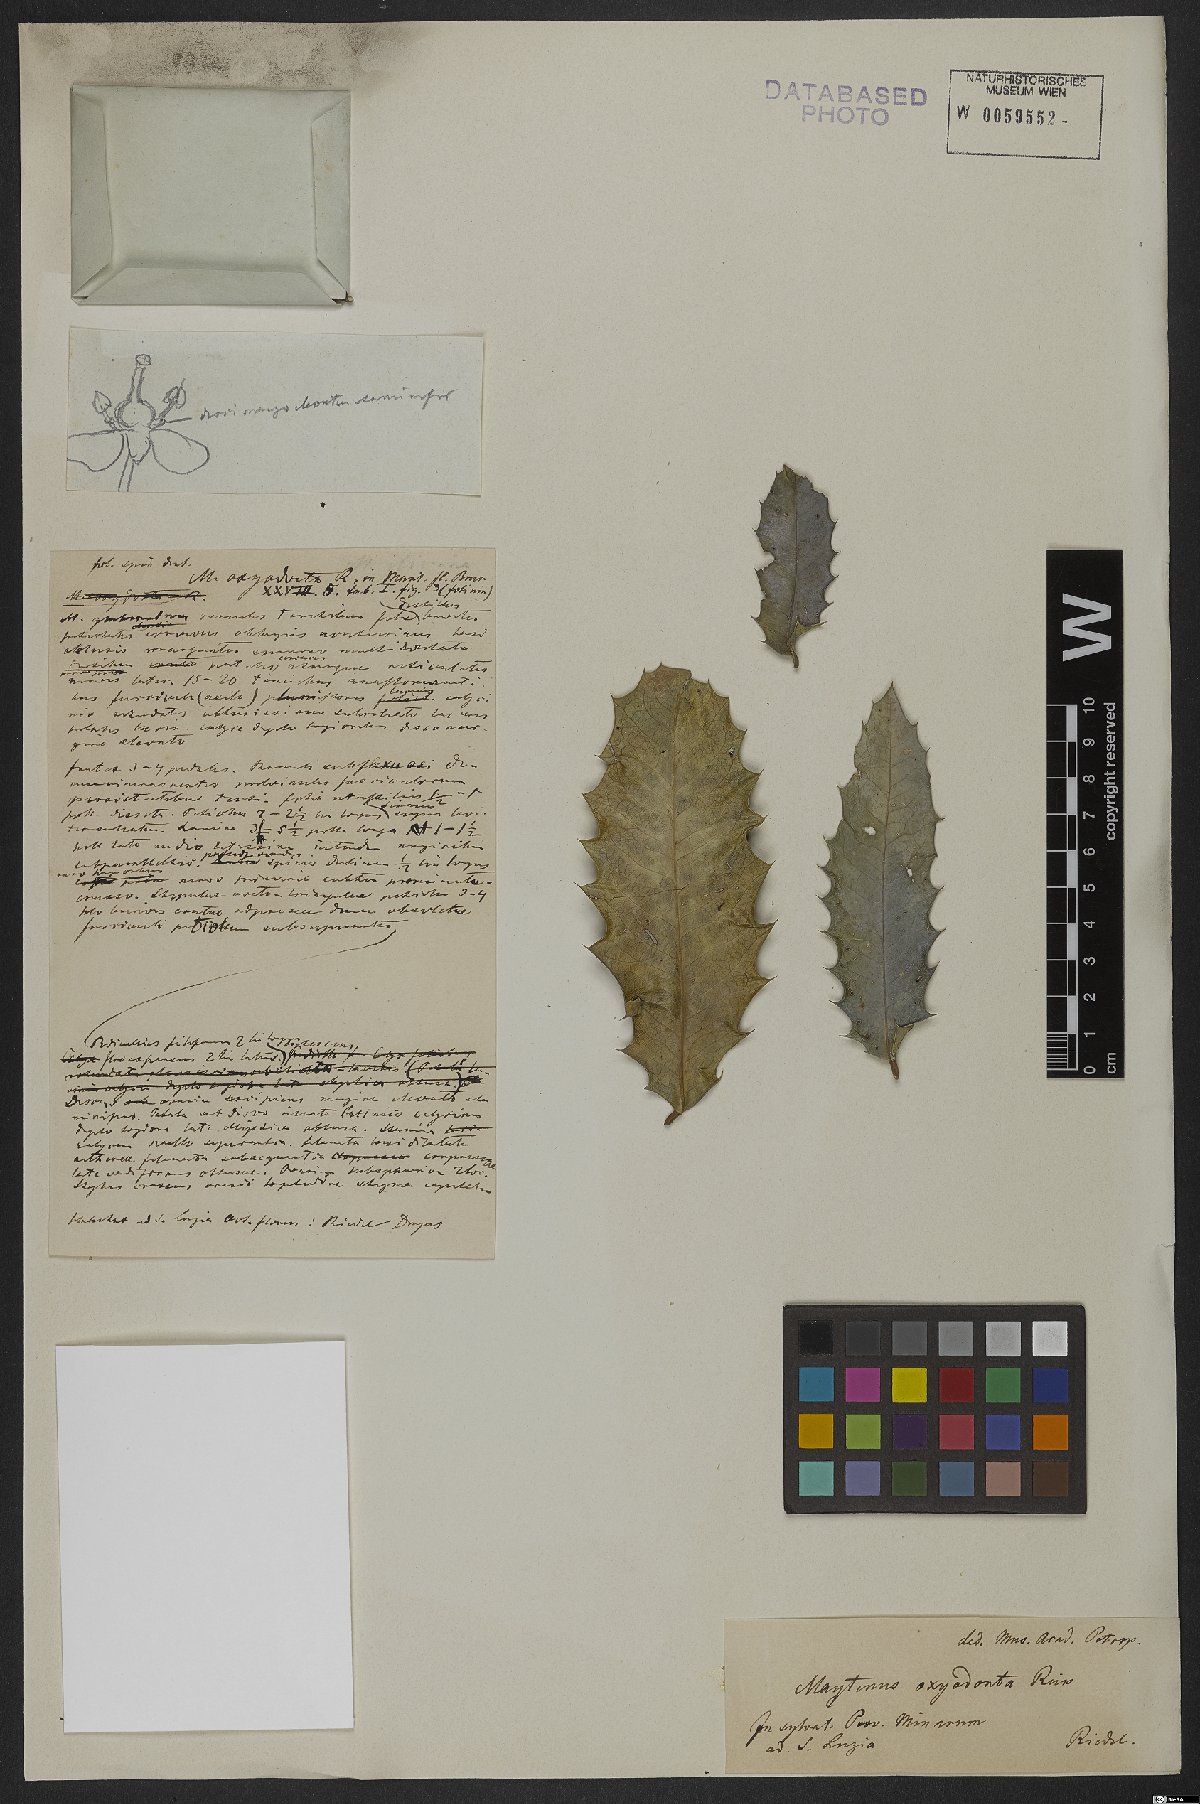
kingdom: Plantae
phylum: Tracheophyta
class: Magnoliopsida
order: Celastrales
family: Celastraceae
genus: Monteverdia
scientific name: Monteverdia aquifolium
